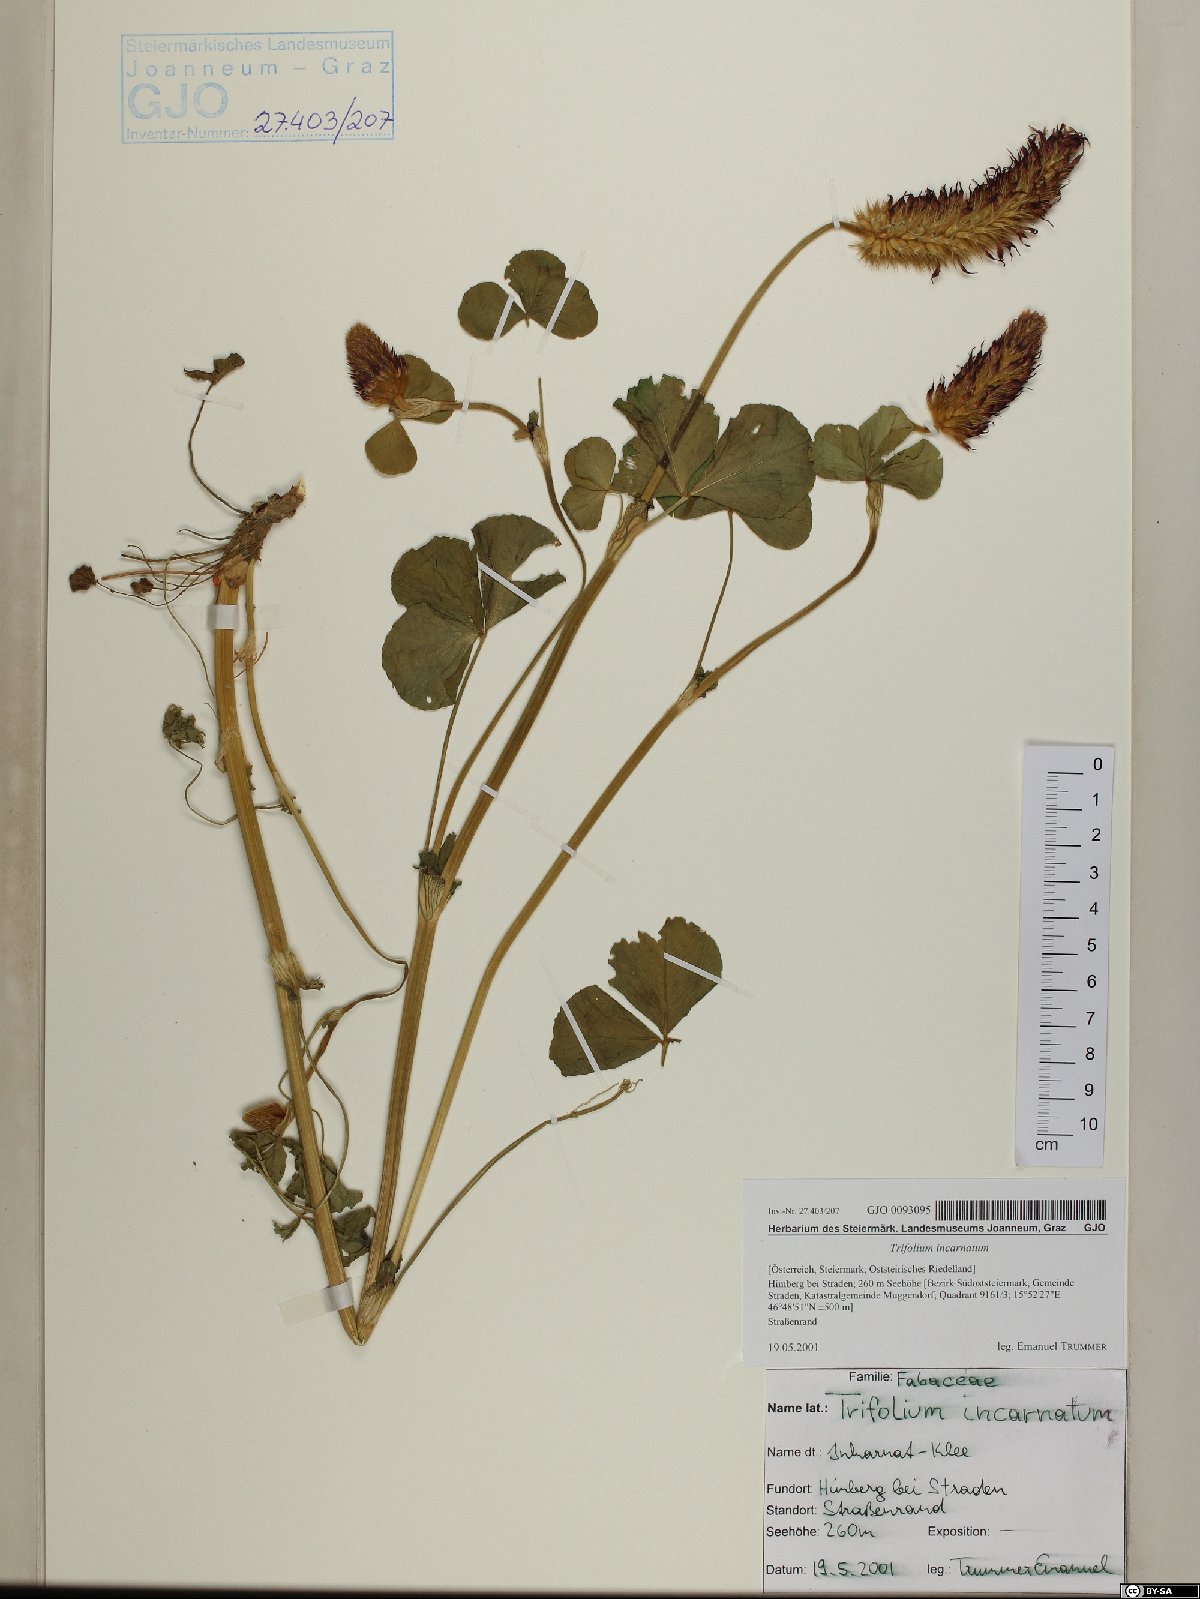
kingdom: Plantae
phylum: Tracheophyta
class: Magnoliopsida
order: Fabales
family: Fabaceae
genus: Trifolium
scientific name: Trifolium incarnatum
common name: Crimson clover
